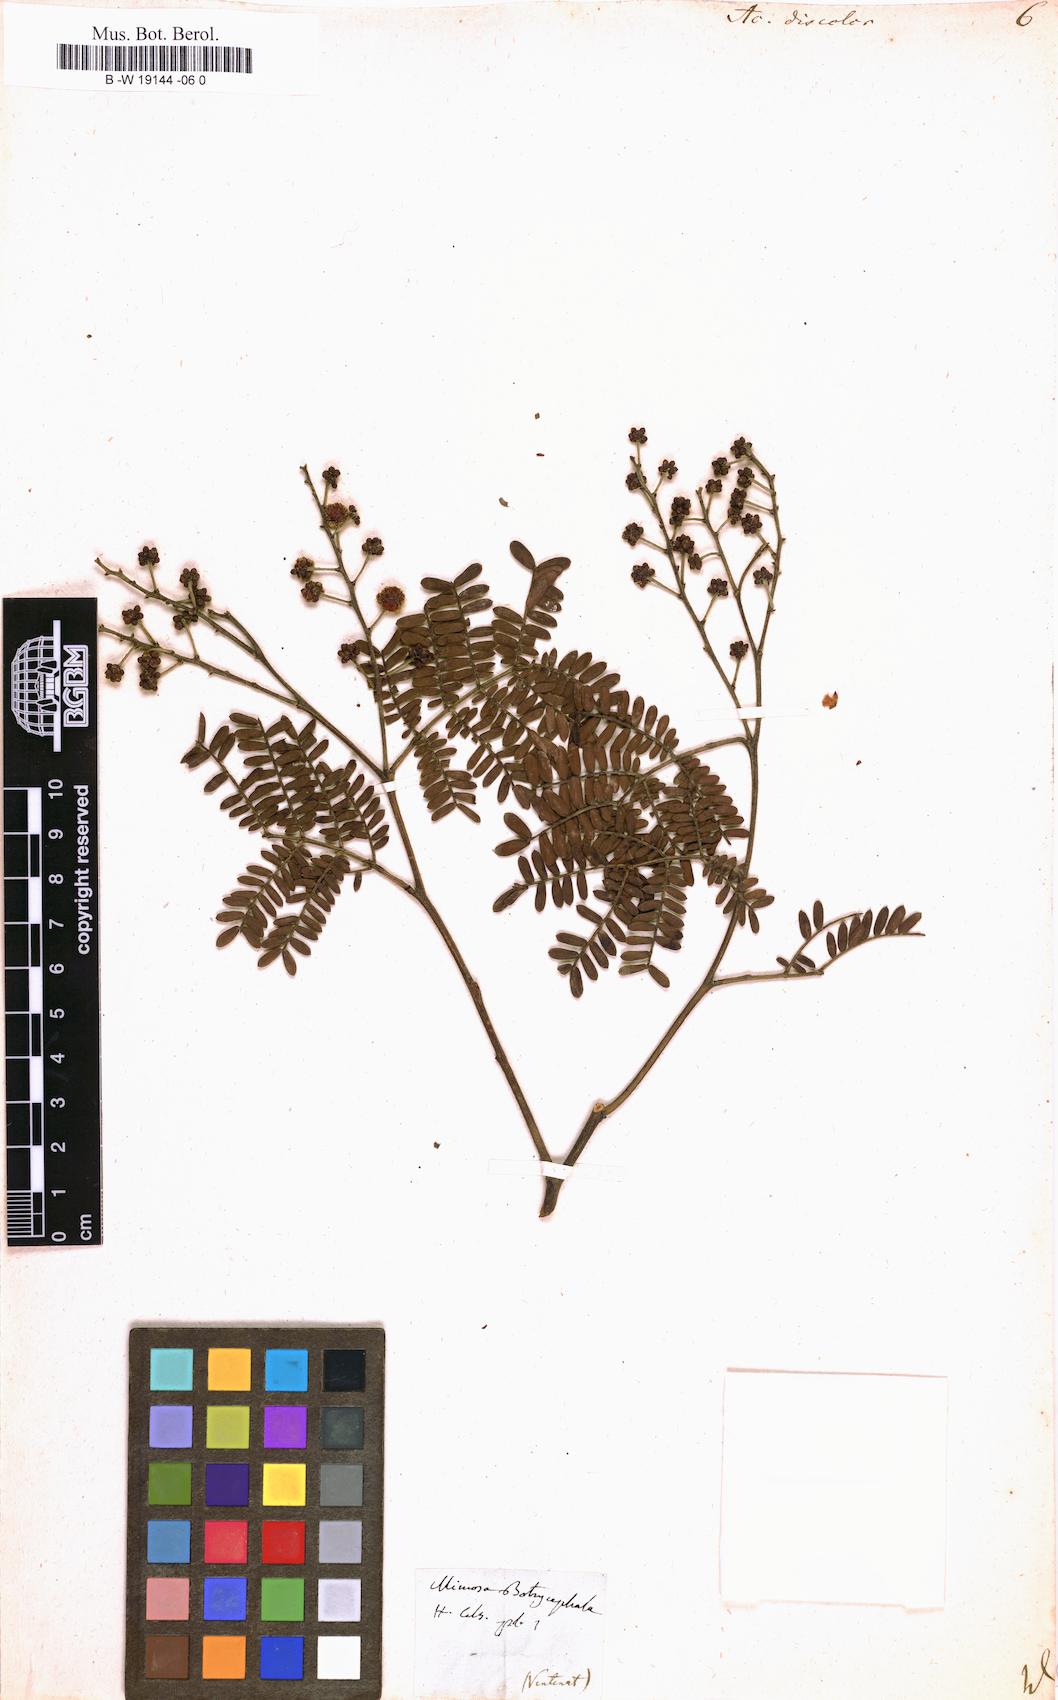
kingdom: Plantae
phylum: Tracheophyta
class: Magnoliopsida
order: Fabales
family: Fabaceae
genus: Acacia
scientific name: Acacia terminalis
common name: Cedar wattle
